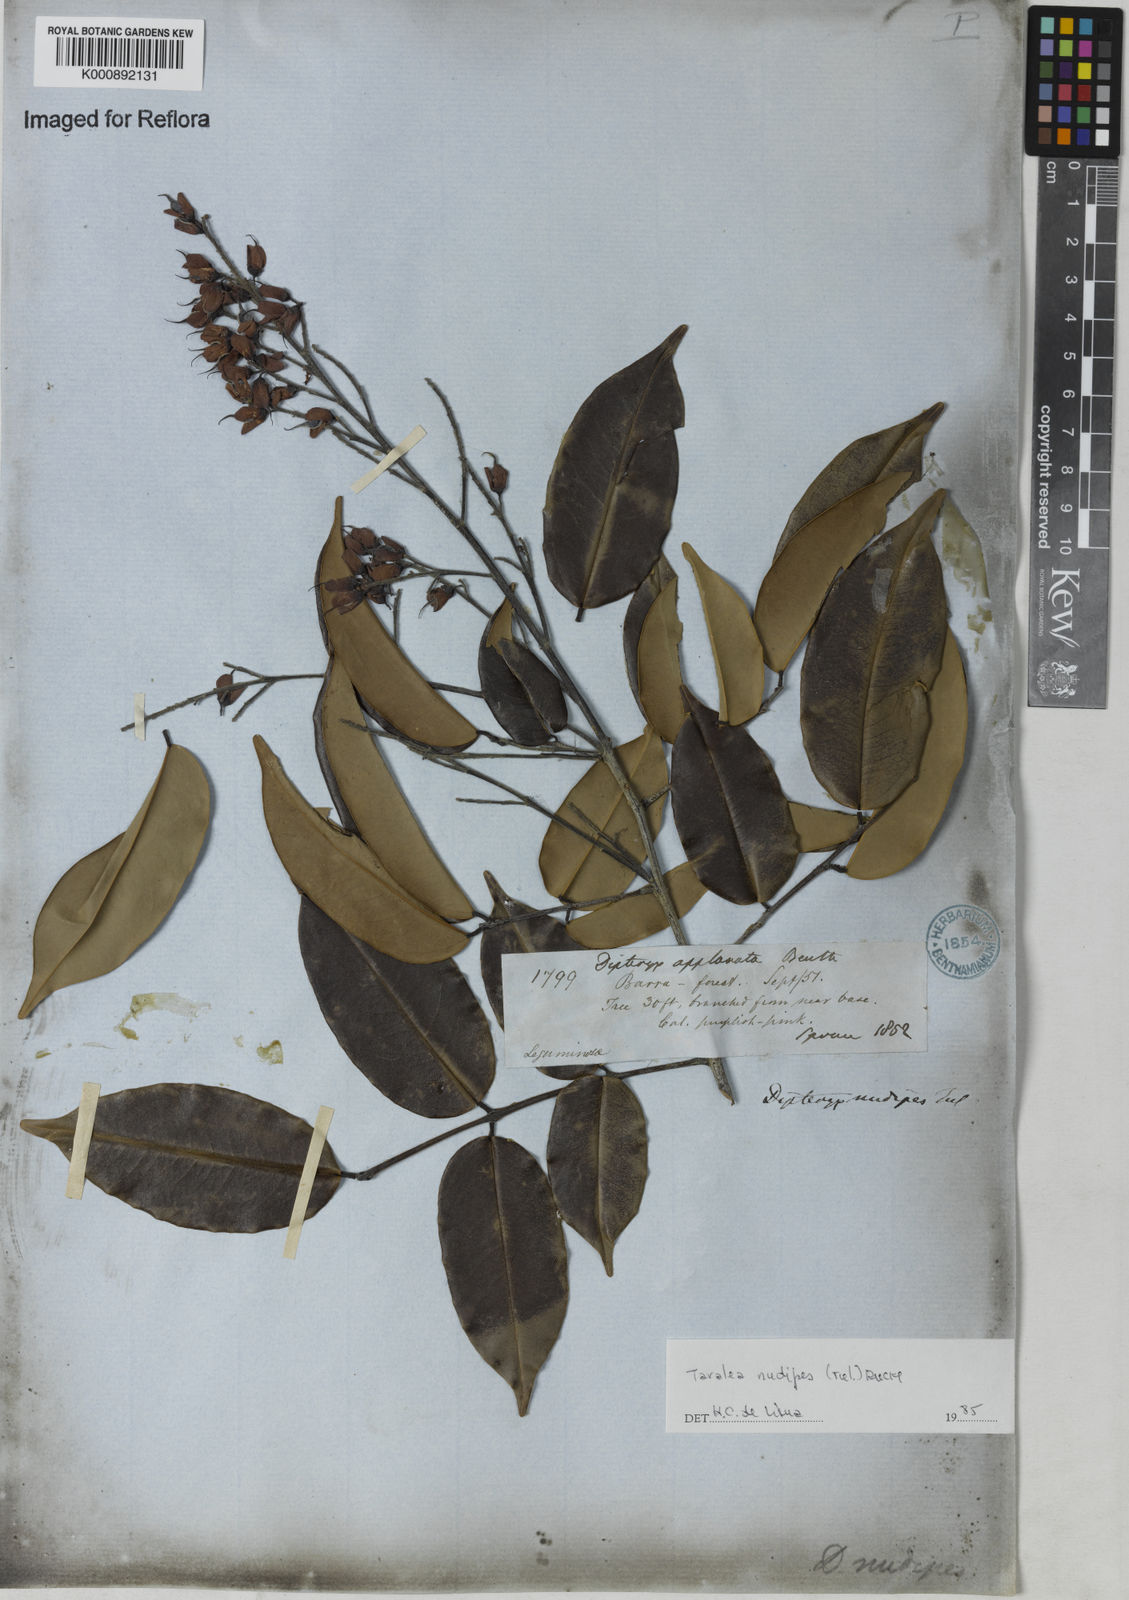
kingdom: Plantae
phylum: Tracheophyta
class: Magnoliopsida
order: Fabales
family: Fabaceae
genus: Taralea
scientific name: Taralea nudipes
